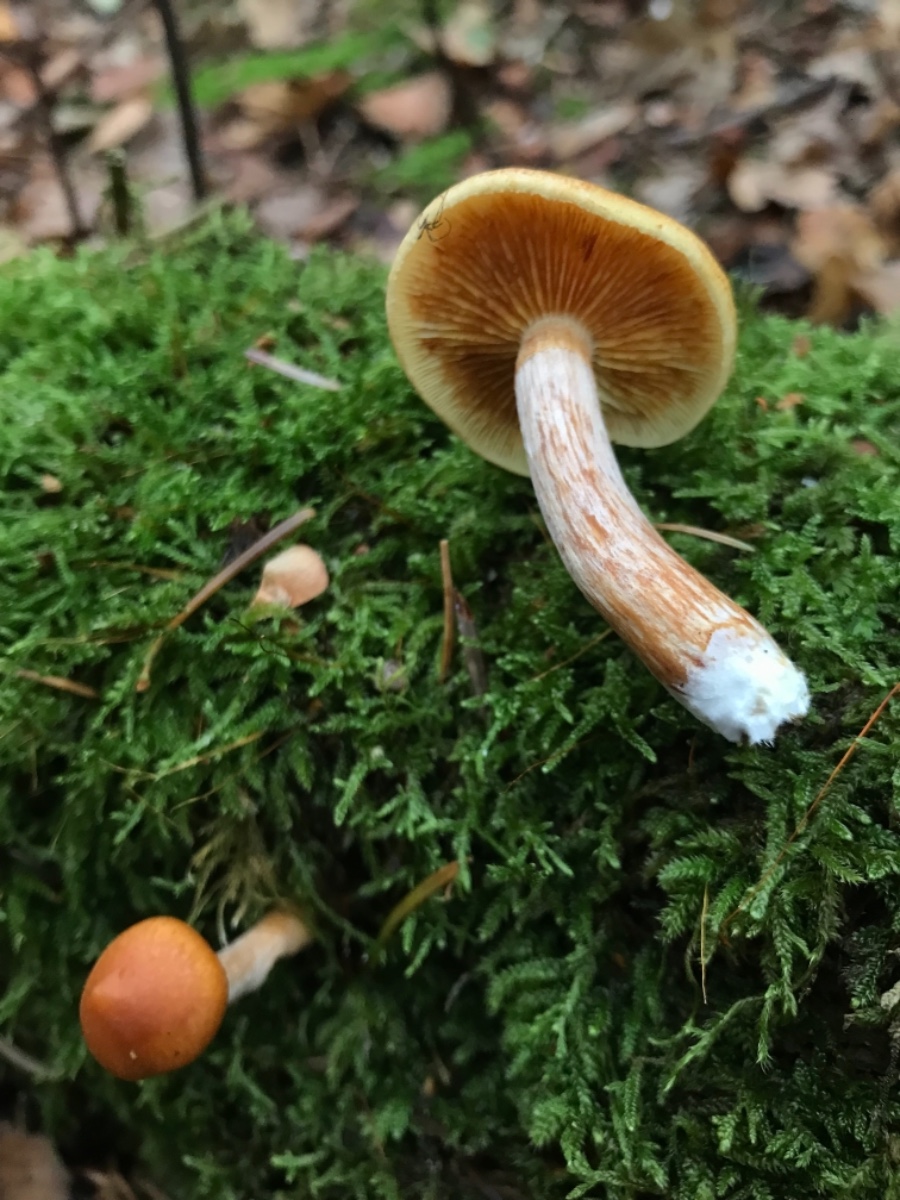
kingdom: Fungi
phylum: Basidiomycota
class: Agaricomycetes
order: Agaricales
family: Hymenogastraceae
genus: Gymnopilus
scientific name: Gymnopilus penetrans
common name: plettet flammehat
